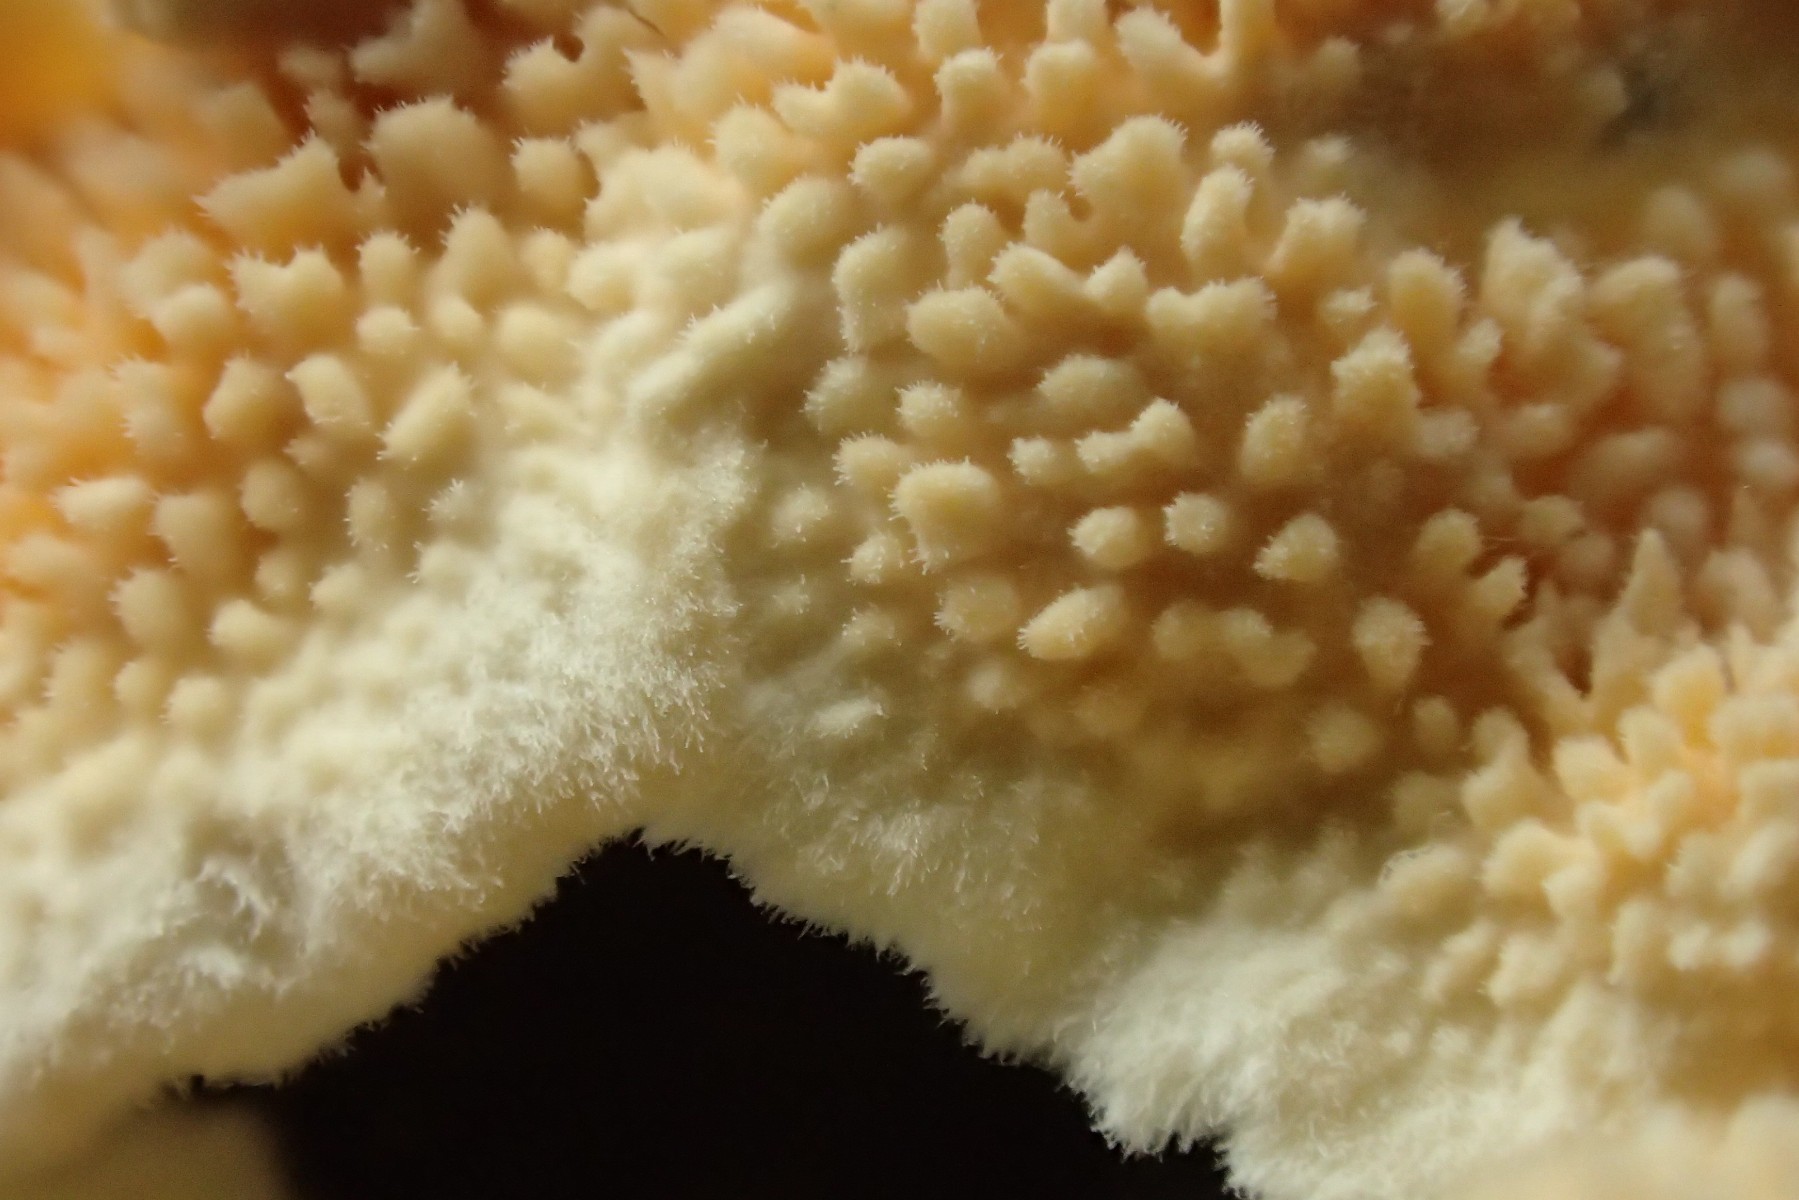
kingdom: Fungi
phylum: Basidiomycota
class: Agaricomycetes
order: Polyporales
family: Steccherinaceae
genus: Steccherinum
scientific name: Steccherinum ochraceum
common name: almindelig skønpig
